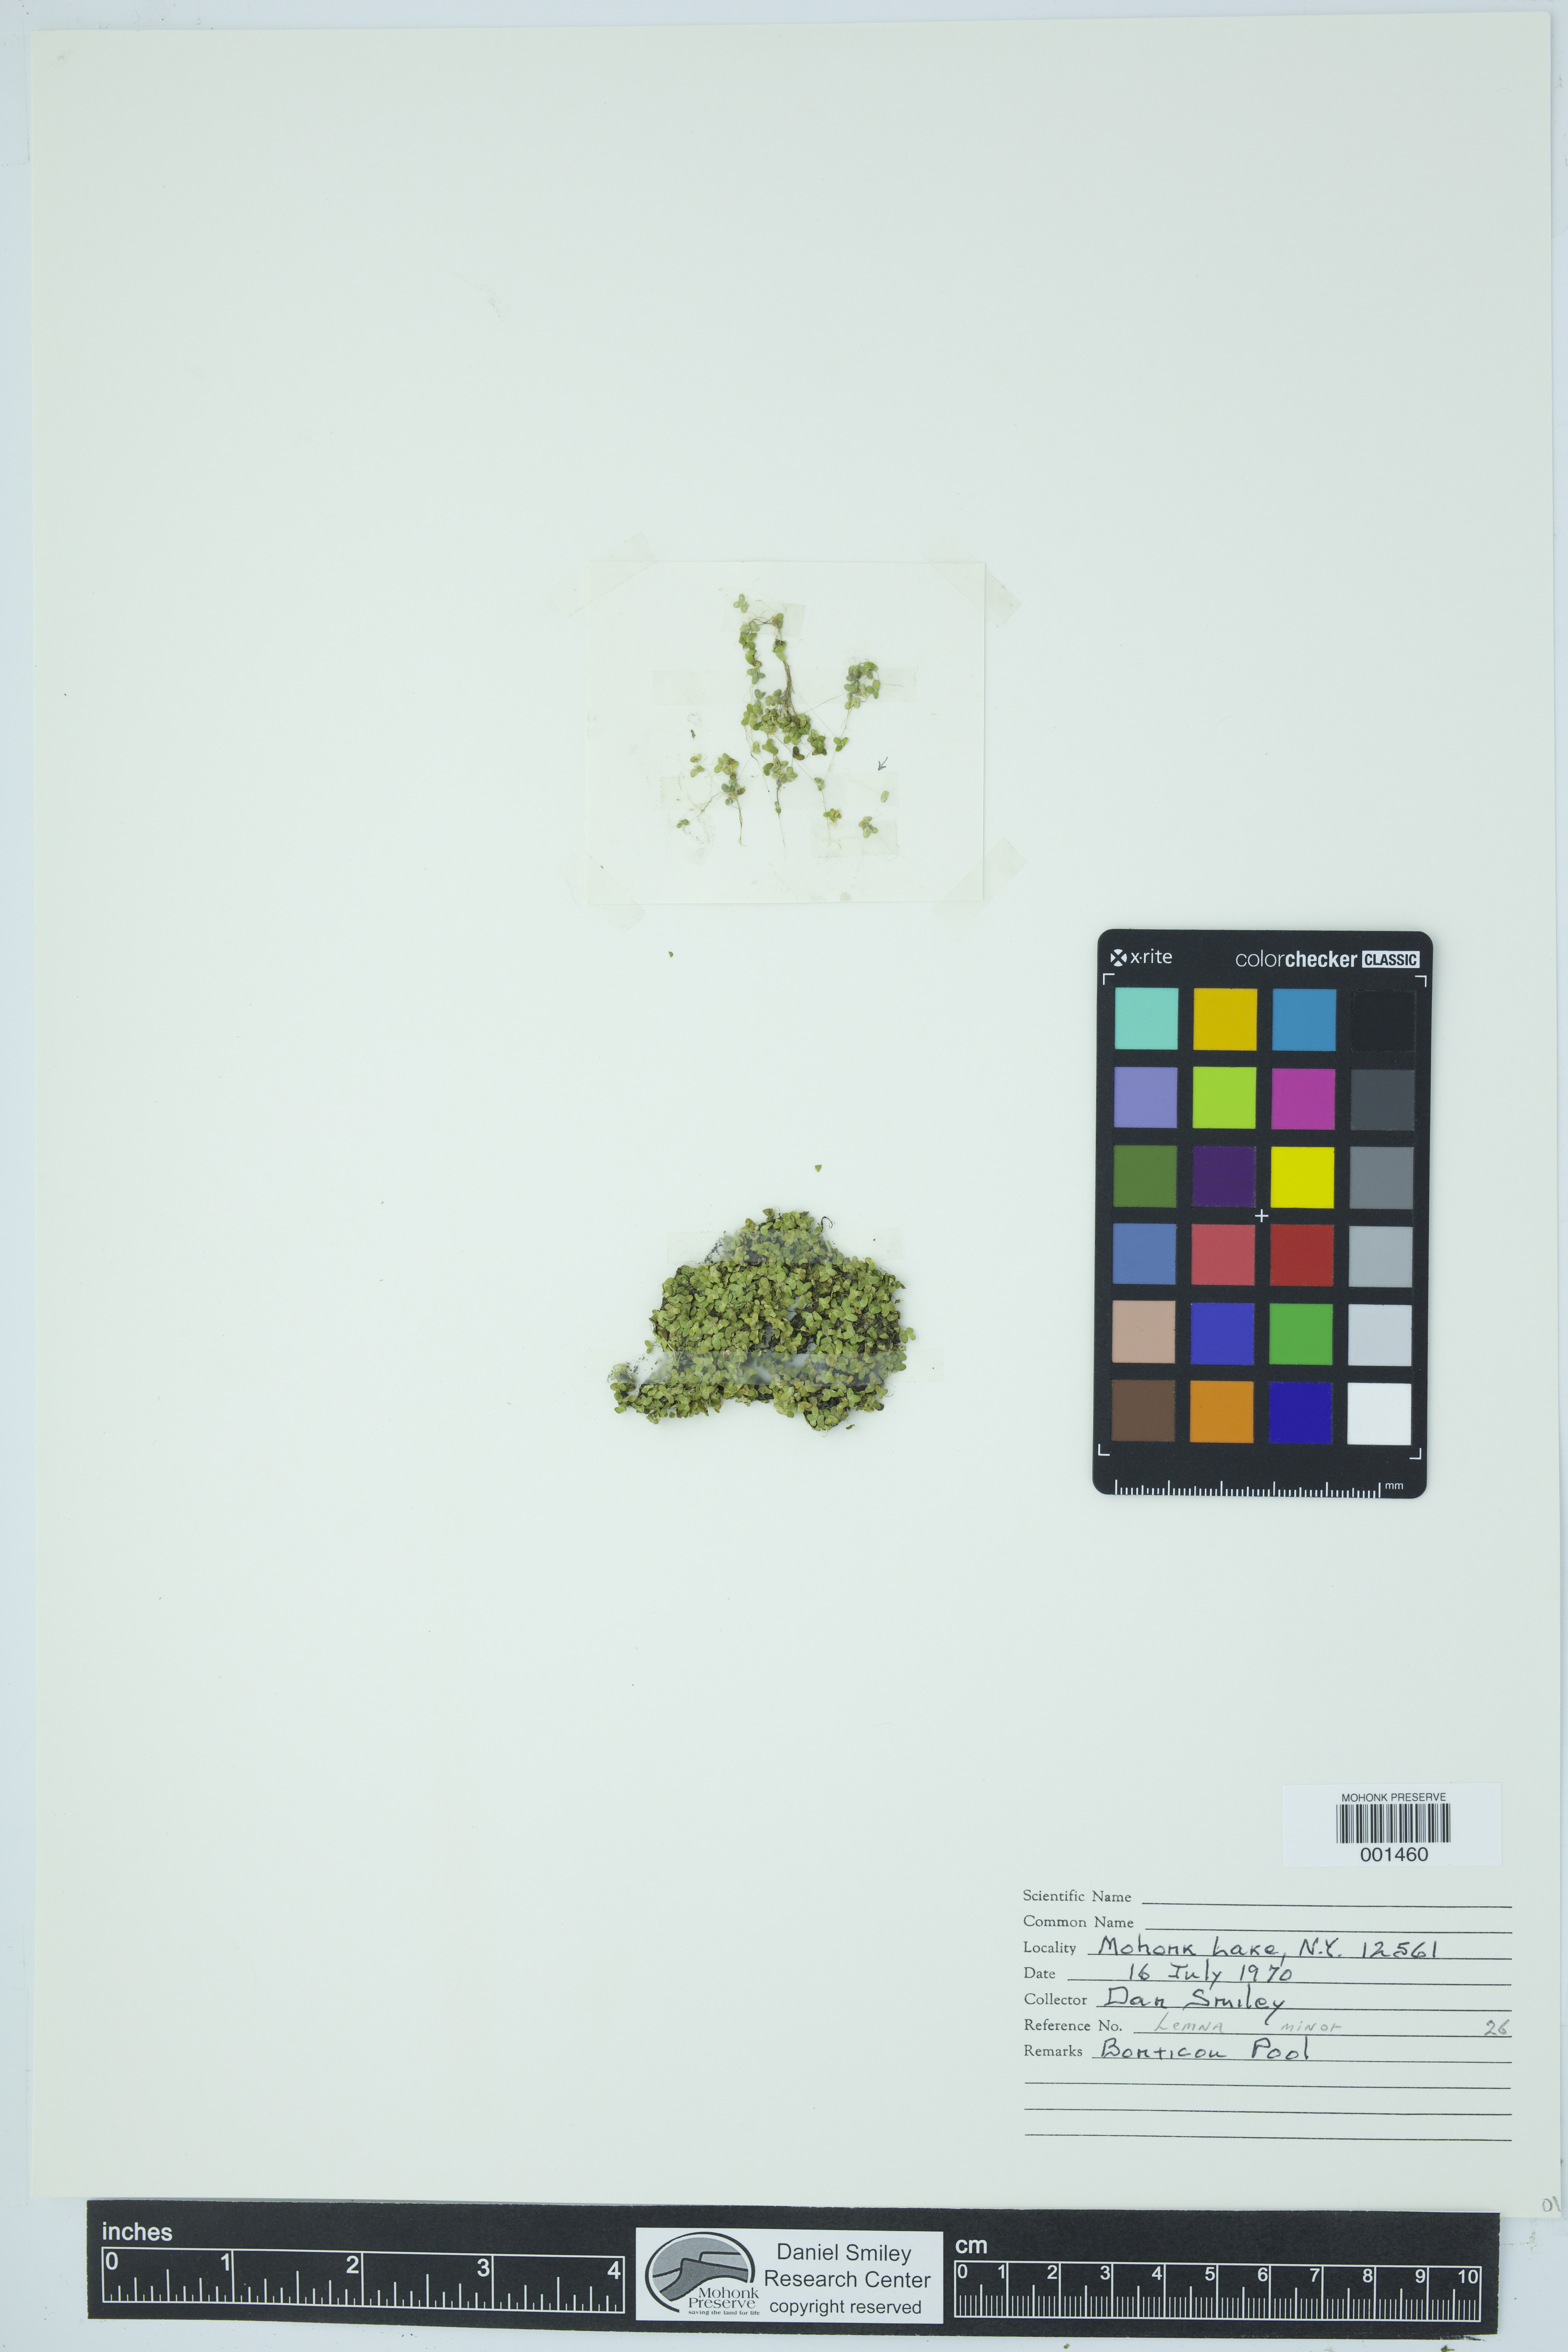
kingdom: Plantae
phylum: Tracheophyta
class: Liliopsida
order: Alismatales
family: Araceae
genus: Lemna
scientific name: Lemna minor
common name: Common duckweed
